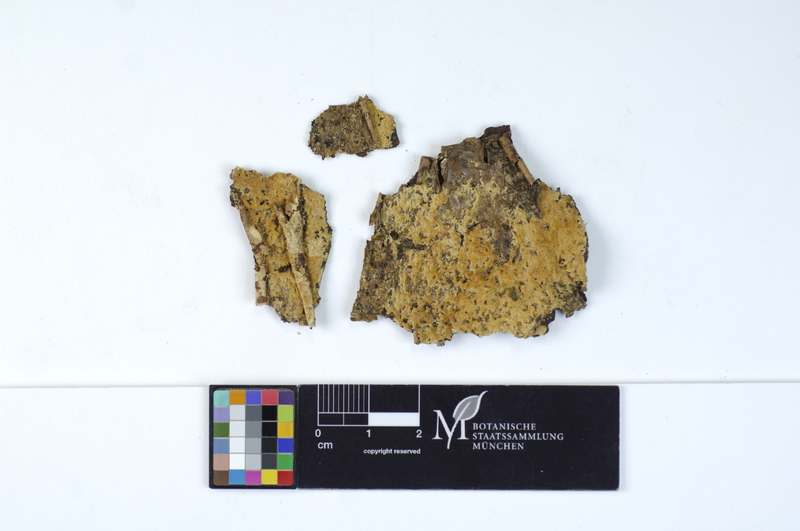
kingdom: Plantae
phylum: Tracheophyta
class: Magnoliopsida
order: Fagales
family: Fagaceae
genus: Quercus
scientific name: Quercus
